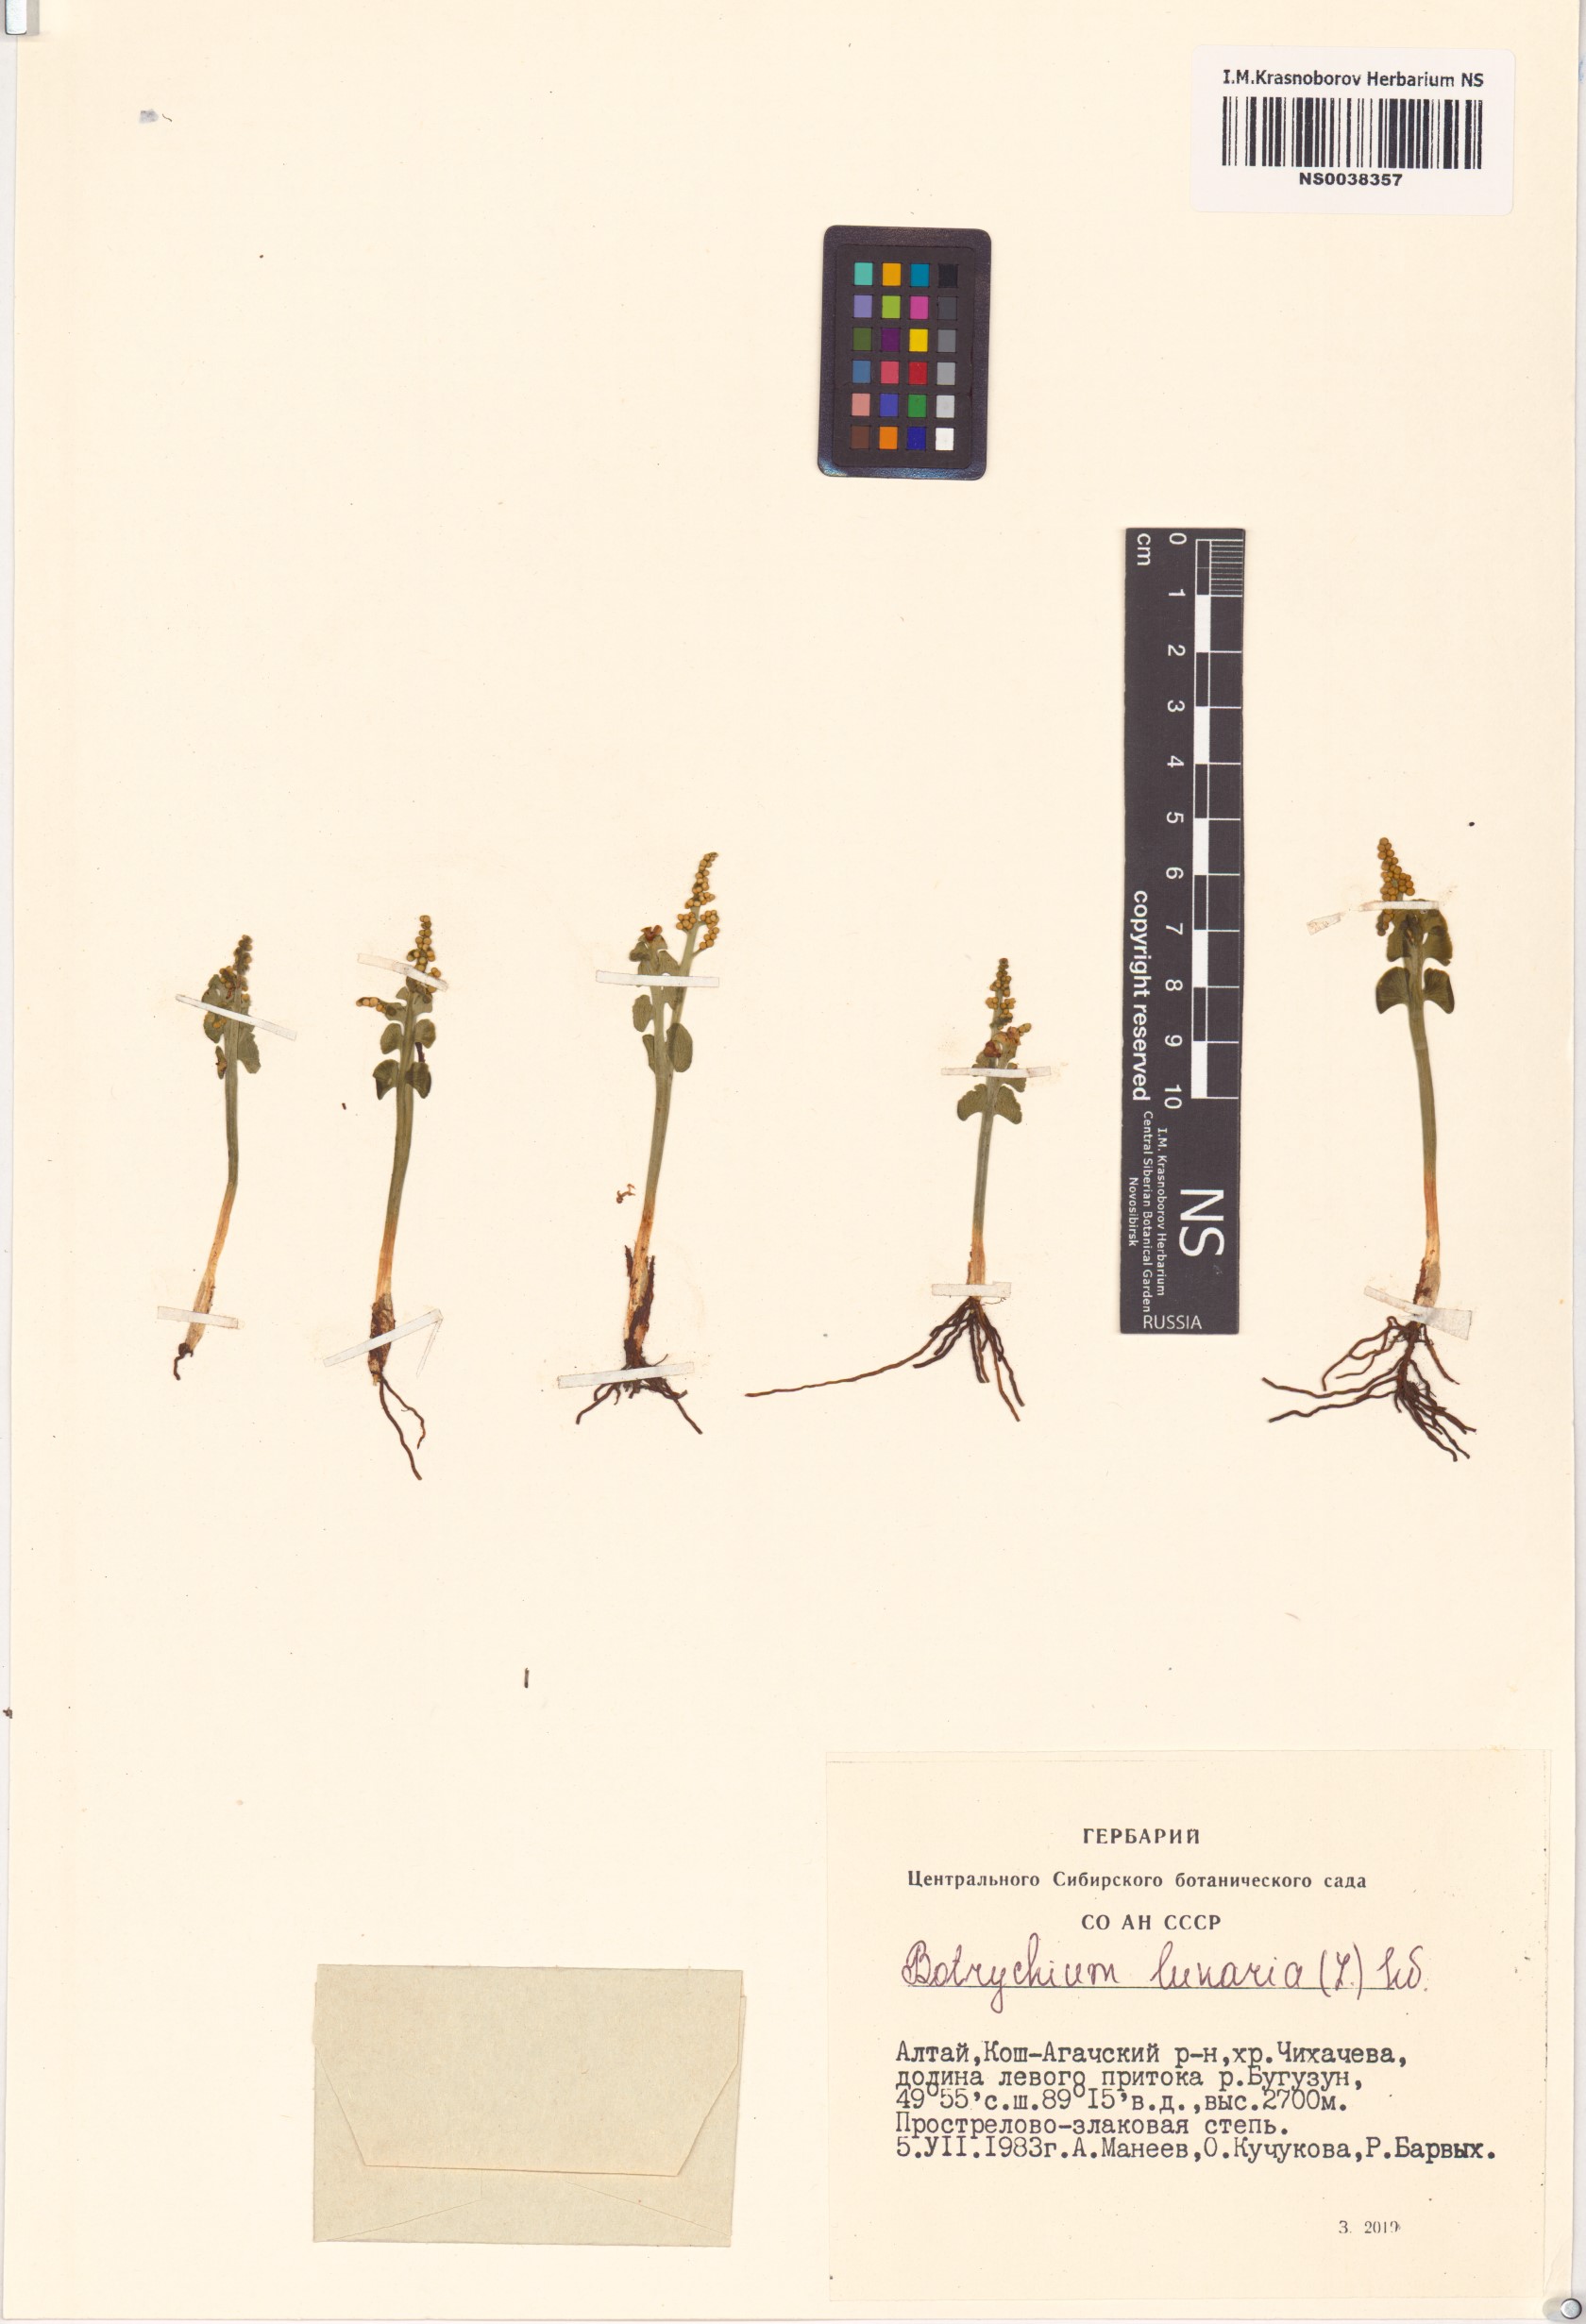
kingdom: Plantae
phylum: Tracheophyta
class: Polypodiopsida
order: Ophioglossales
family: Ophioglossaceae
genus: Botrychium
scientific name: Botrychium lunaria
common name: Moonwort
